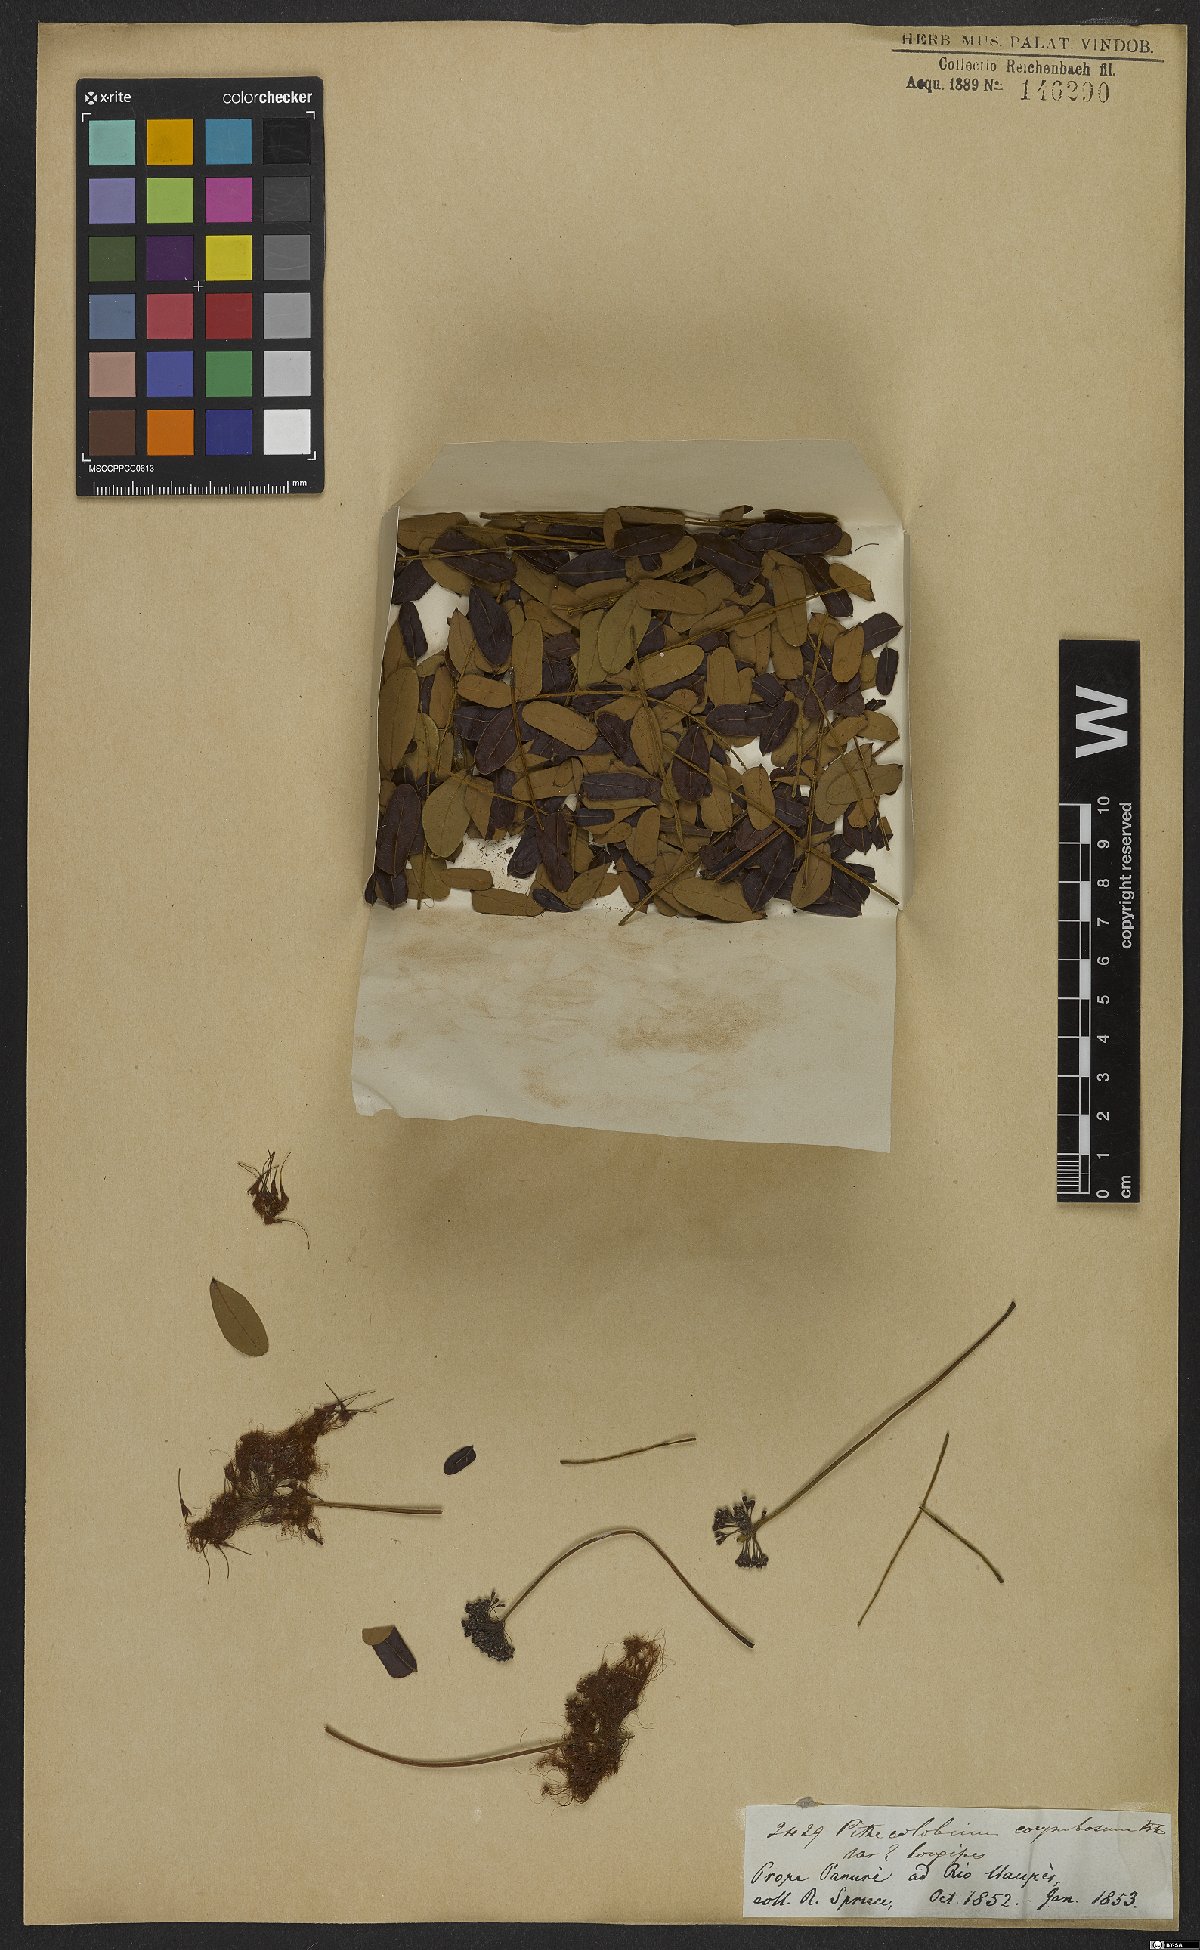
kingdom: Plantae
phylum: Tracheophyta
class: Magnoliopsida
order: Fabales
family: Fabaceae
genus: Hydrochorea
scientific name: Hydrochorea corymbosa
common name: Swamp manariballi
